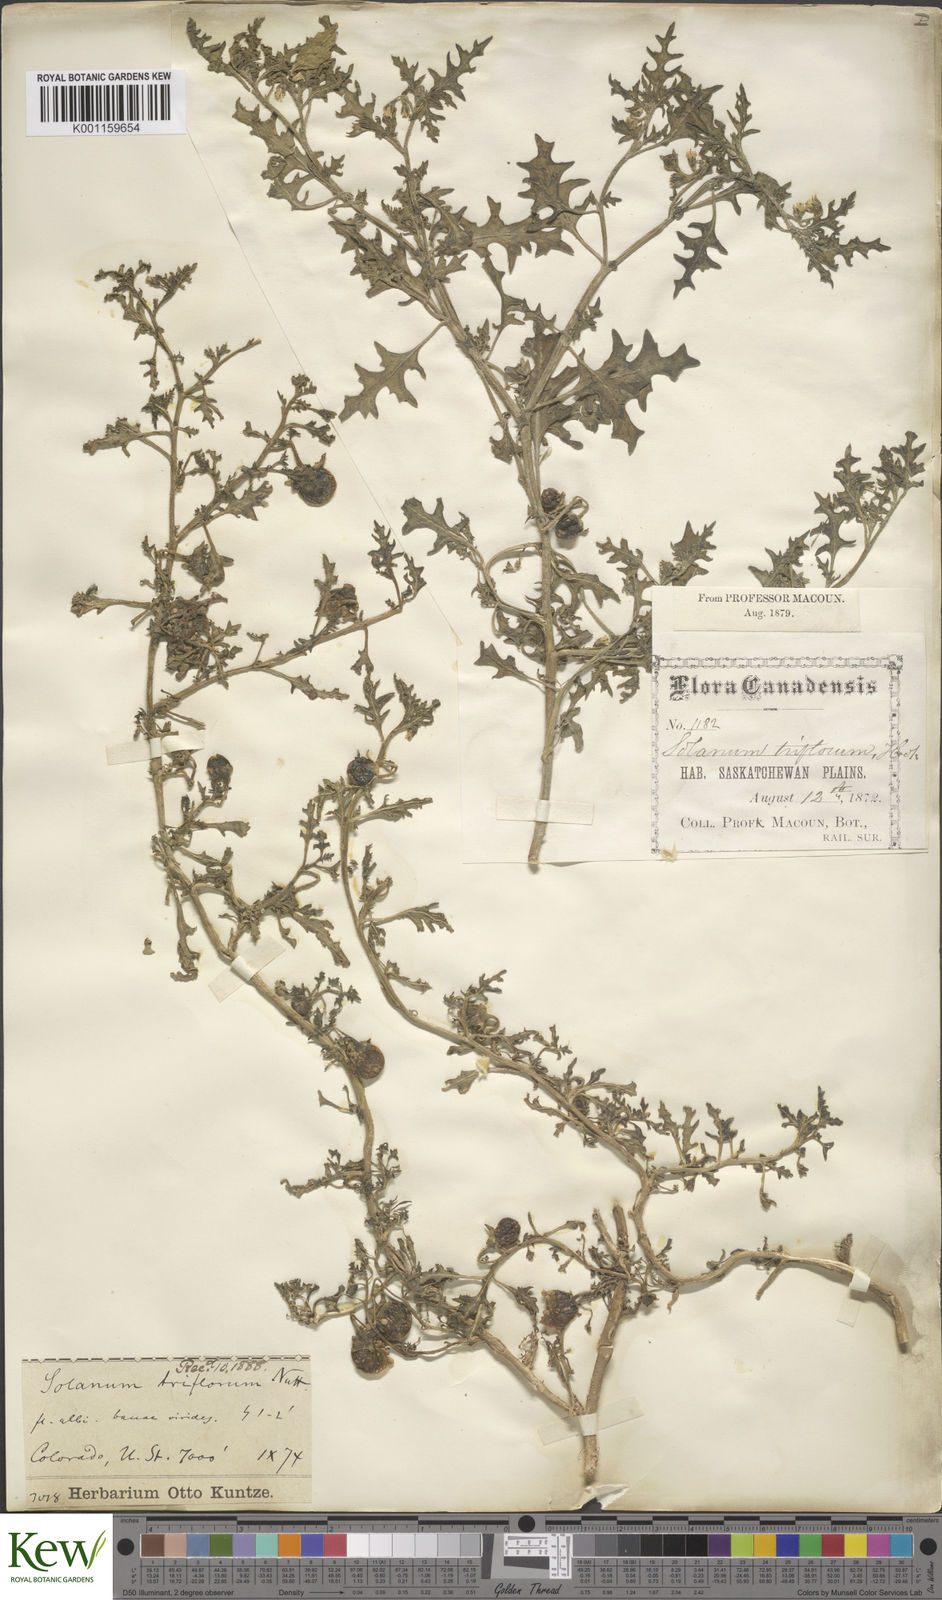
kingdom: Plantae
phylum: Tracheophyta
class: Magnoliopsida
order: Solanales
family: Solanaceae
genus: Solanum
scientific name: Solanum triflorum
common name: Small nightshade
